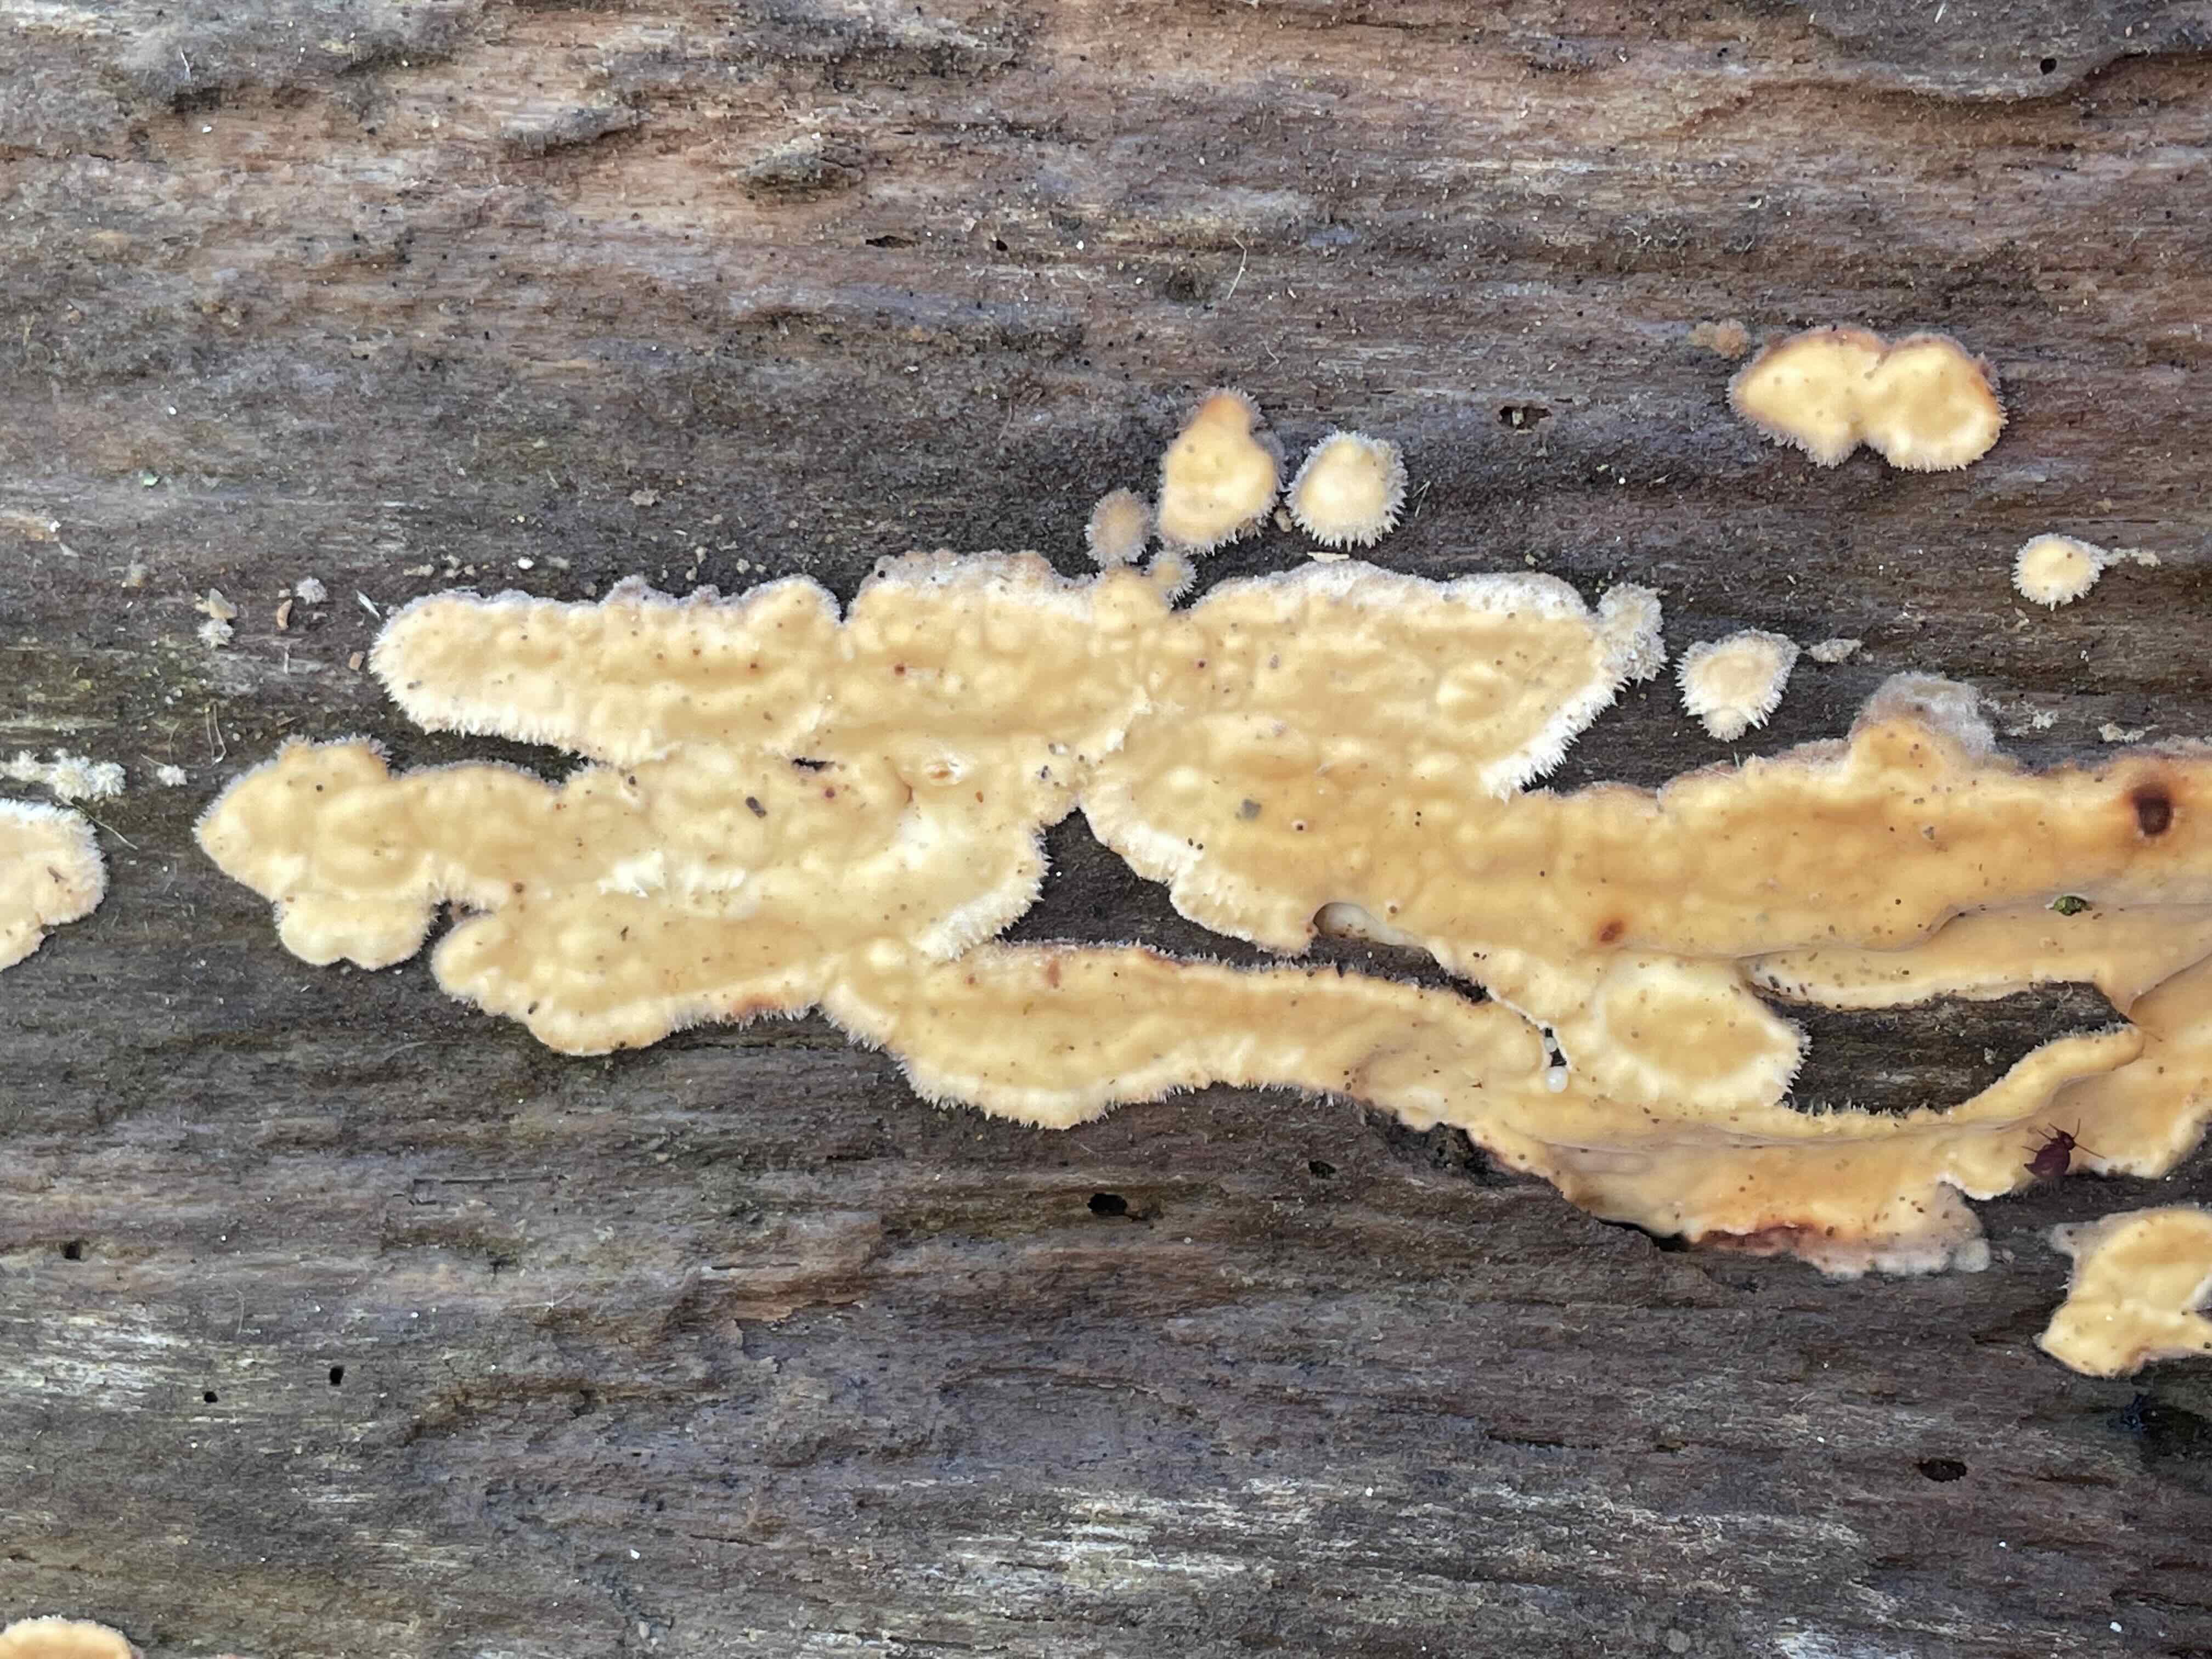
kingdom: Fungi
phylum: Basidiomycota
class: Agaricomycetes
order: Polyporales
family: Dacryobolaceae
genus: Dacryobolus
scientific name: Dacryobolus karstenii
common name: glat vulkanskorpe
